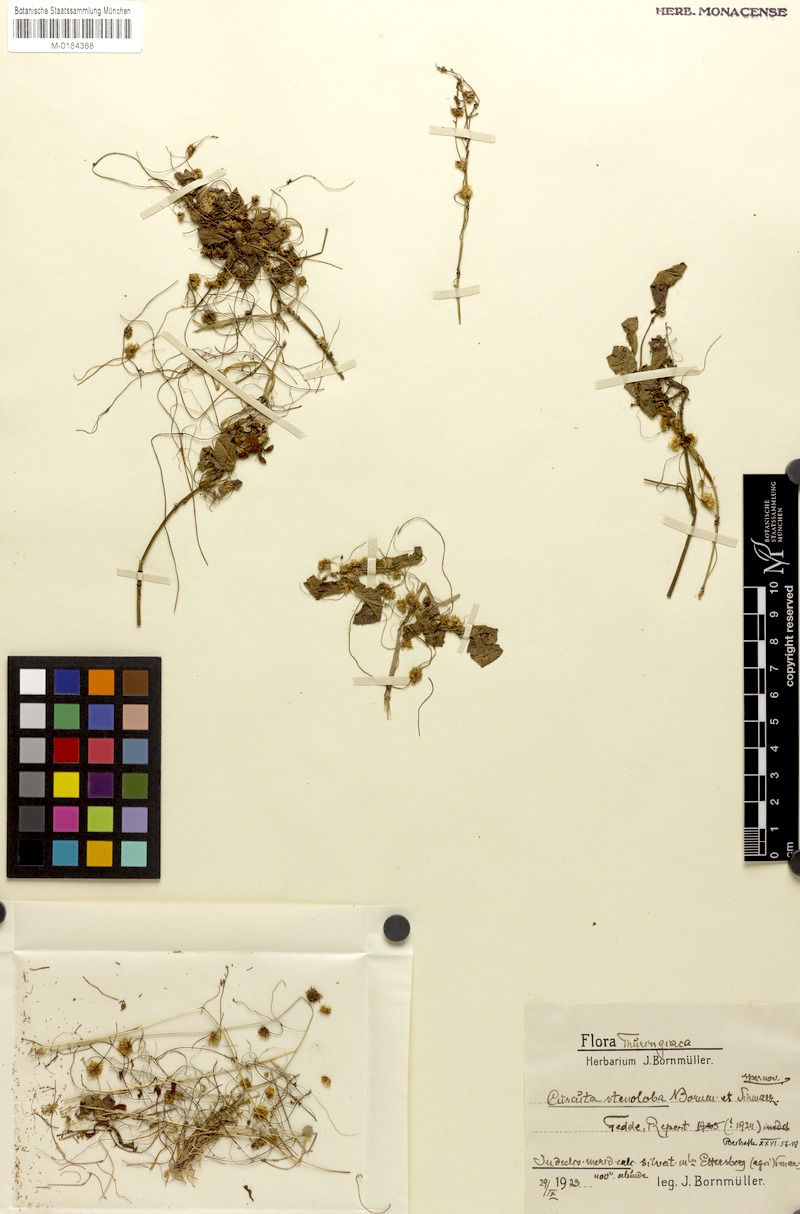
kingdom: Plantae
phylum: Tracheophyta
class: Magnoliopsida
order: Solanales
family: Convolvulaceae
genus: Cuscuta
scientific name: Cuscuta epithymum
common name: Clover dodder
